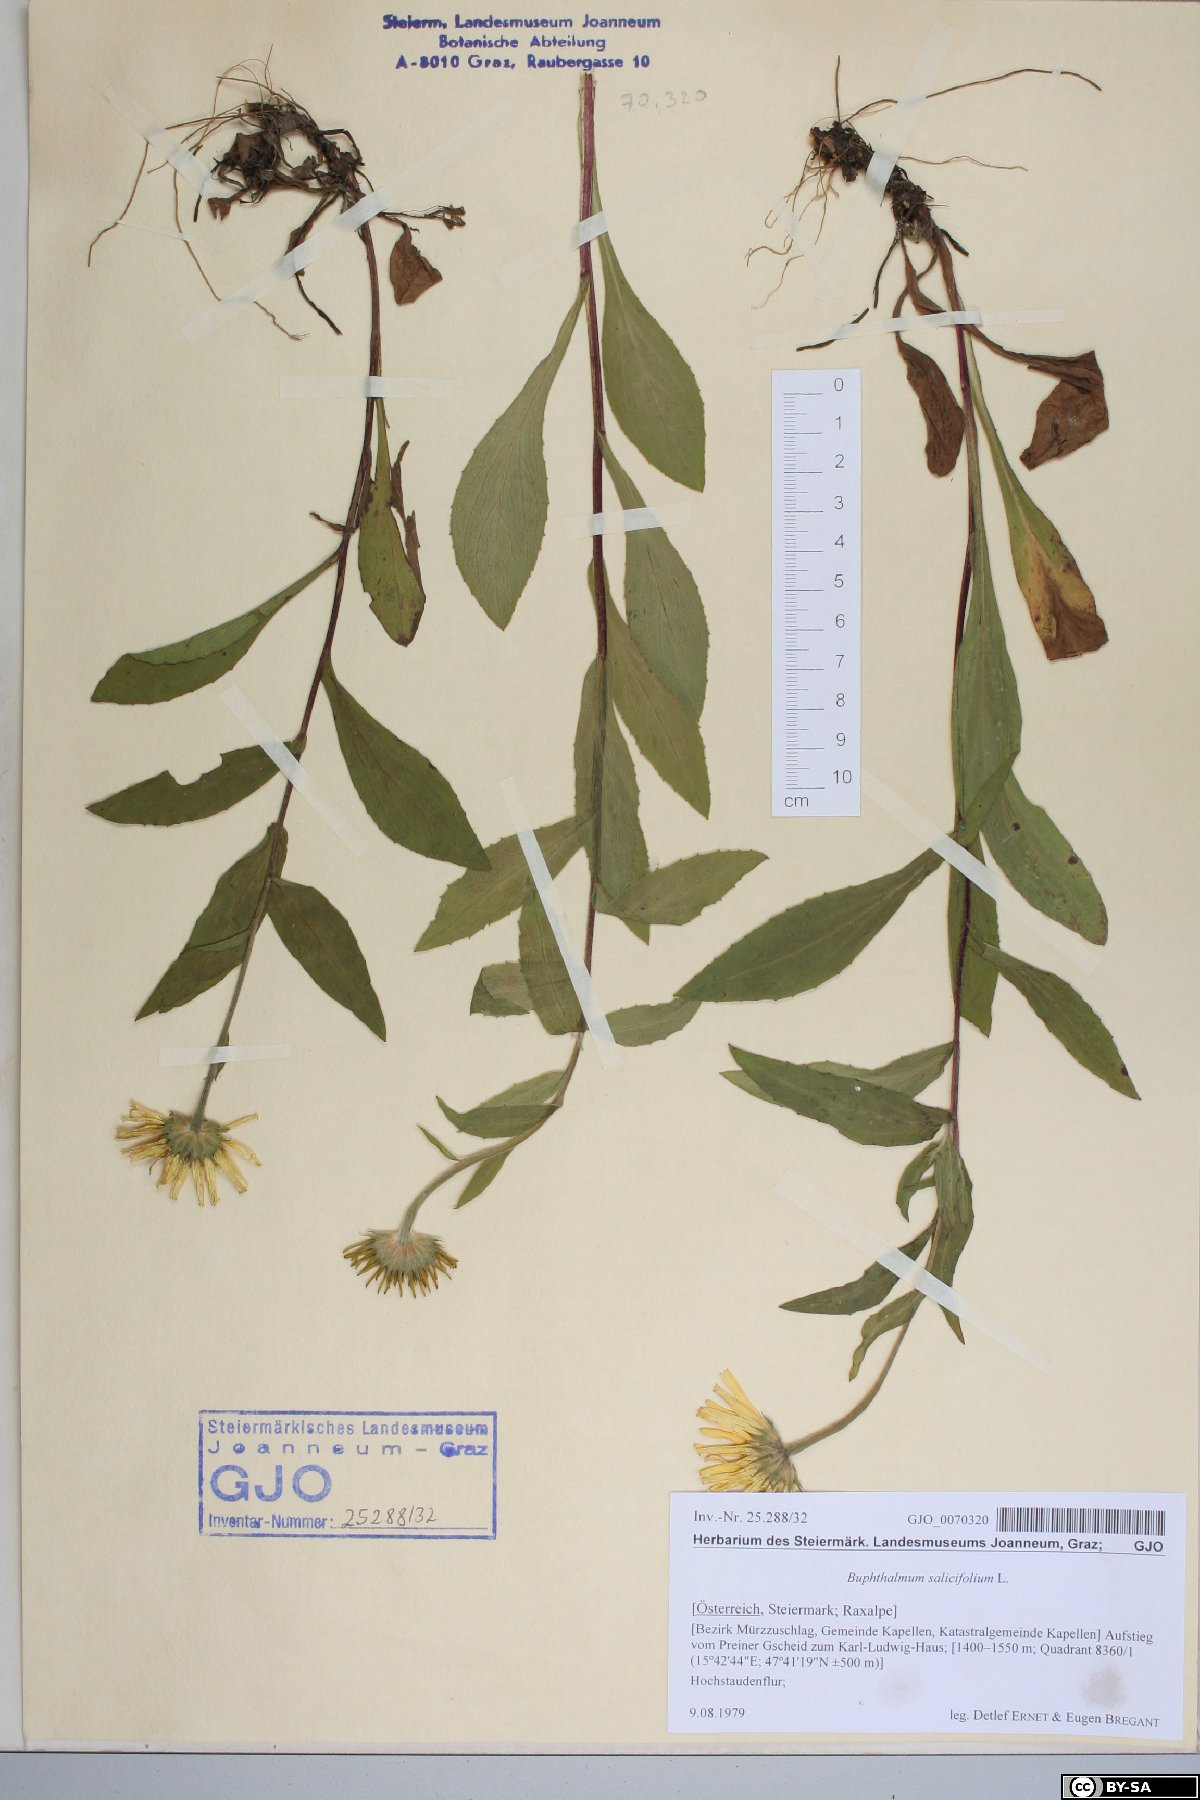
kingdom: Plantae
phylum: Tracheophyta
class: Magnoliopsida
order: Asterales
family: Asteraceae
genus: Buphthalmum
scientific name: Buphthalmum salicifolium
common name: Willow-leaved yellow-oxeye
